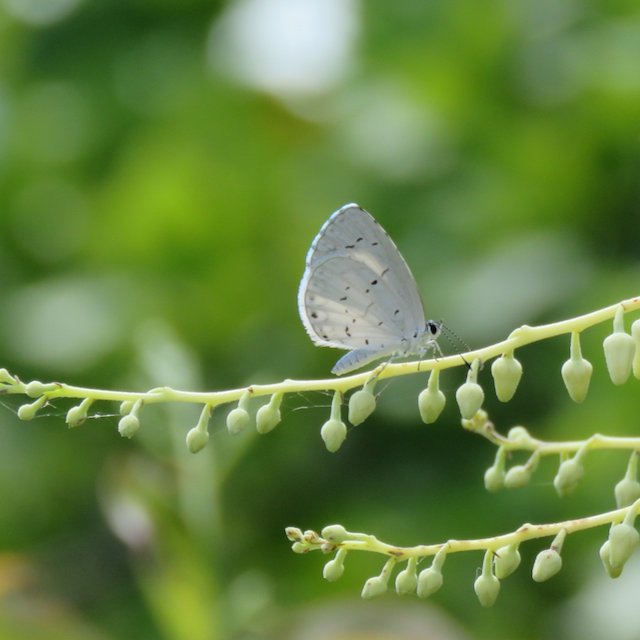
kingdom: Animalia
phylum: Arthropoda
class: Insecta
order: Lepidoptera
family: Lycaenidae
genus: Cyaniris
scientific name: Cyaniris neglecta
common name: Summer Azure
